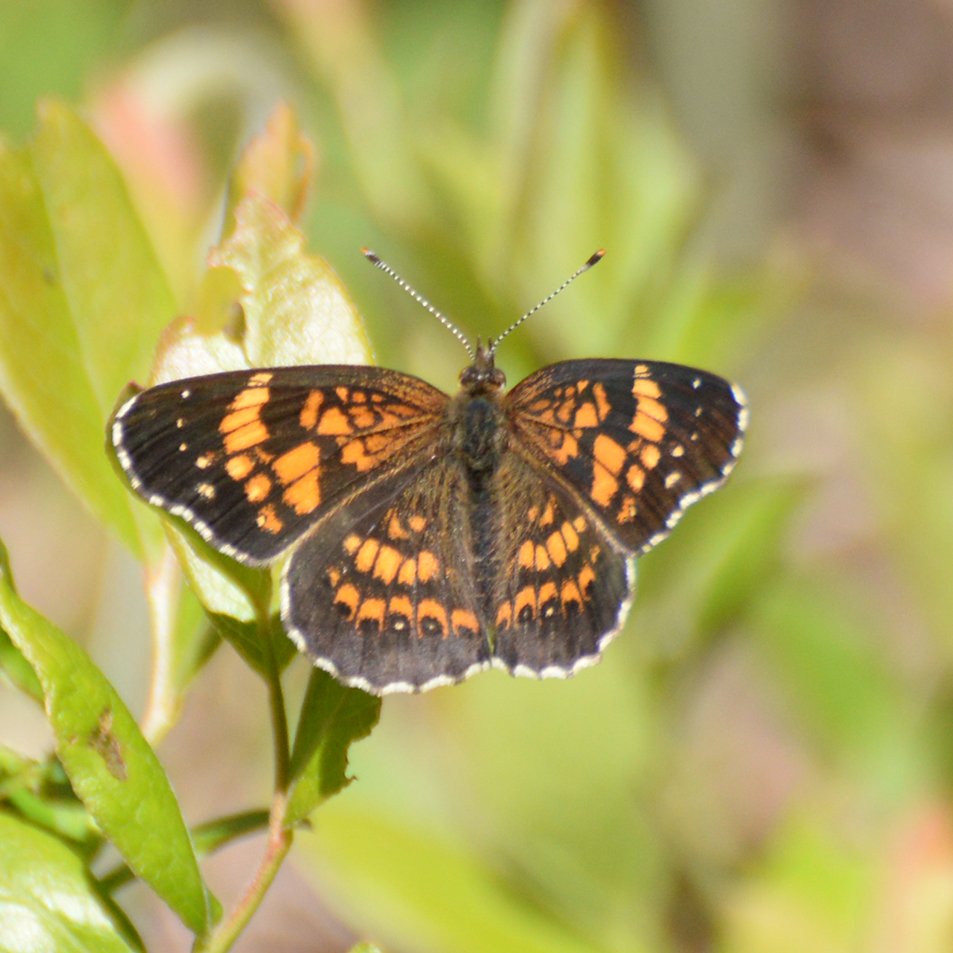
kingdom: Animalia
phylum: Arthropoda
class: Insecta
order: Lepidoptera
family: Nymphalidae
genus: Chlosyne
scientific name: Chlosyne nycteis
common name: Silvery Checkerspot
